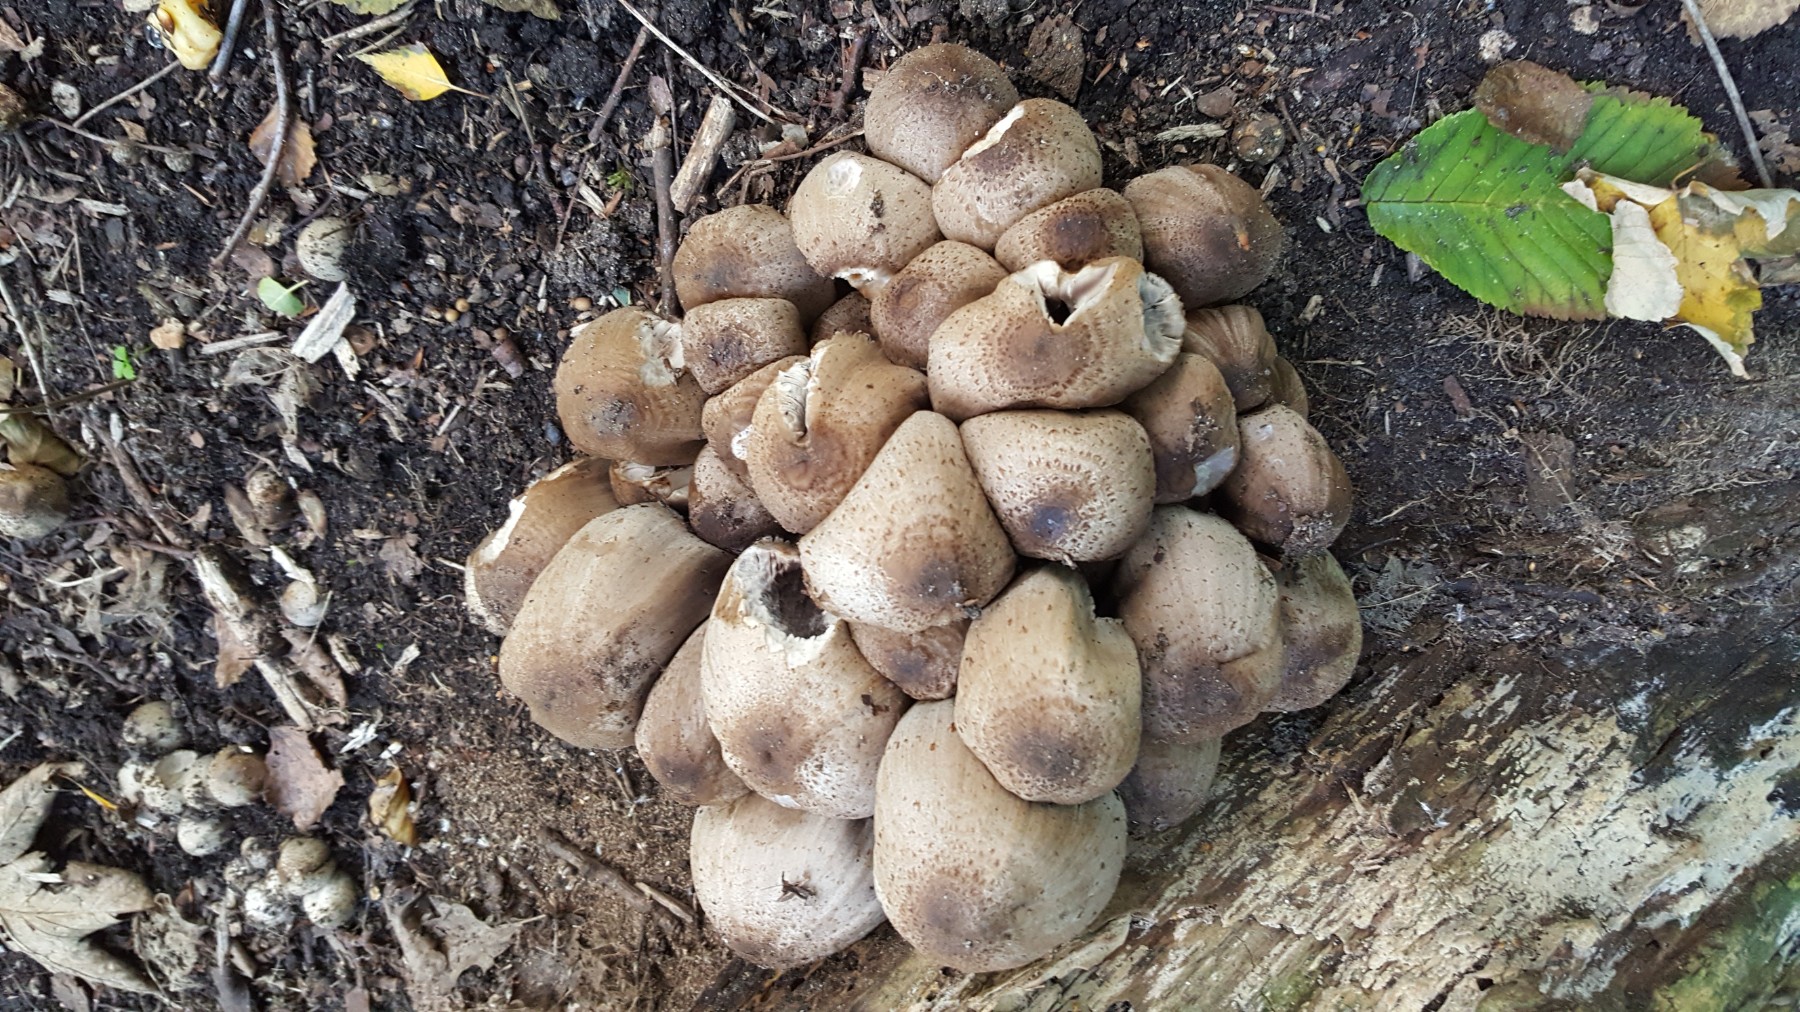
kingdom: Fungi
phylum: Basidiomycota
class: Agaricomycetes
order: Agaricales
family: Psathyrellaceae
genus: Coprinopsis
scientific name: Coprinopsis romagnesiana
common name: brunskællet blækhat
